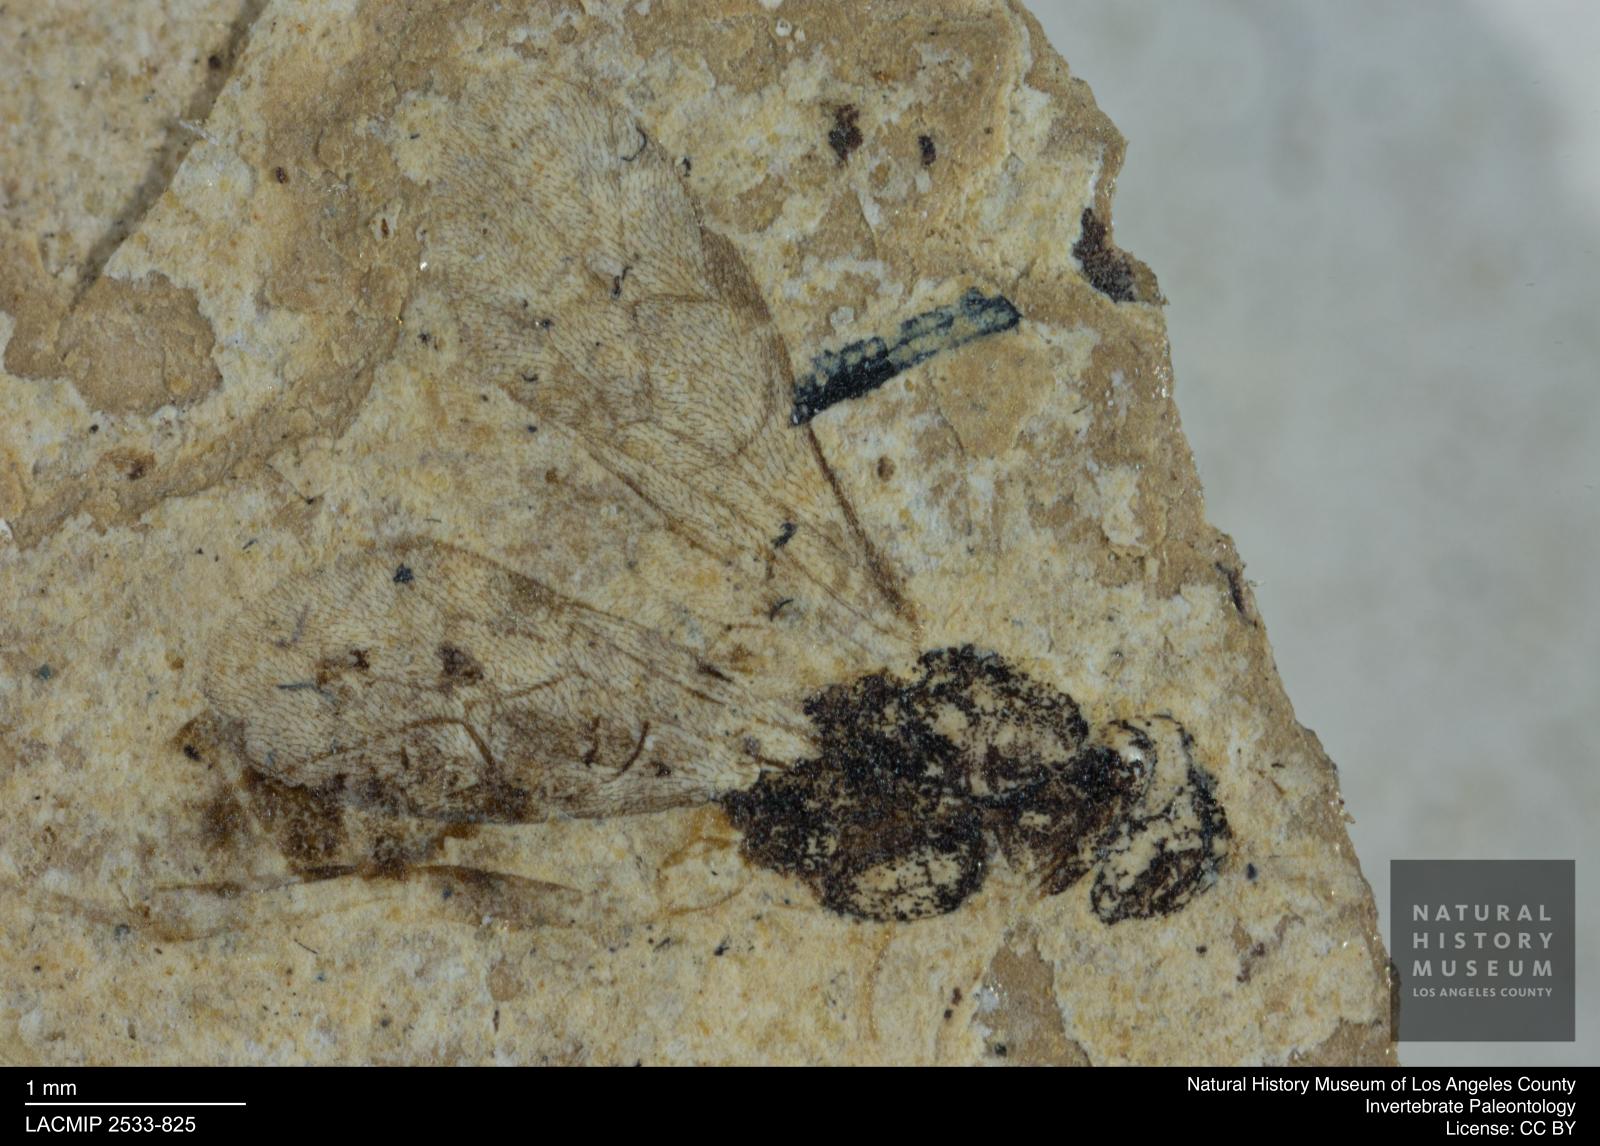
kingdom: Animalia
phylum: Arthropoda
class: Insecta
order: Hymenoptera
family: Ichneumonidae
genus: Hemiteles
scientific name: Hemiteles hirsuta
